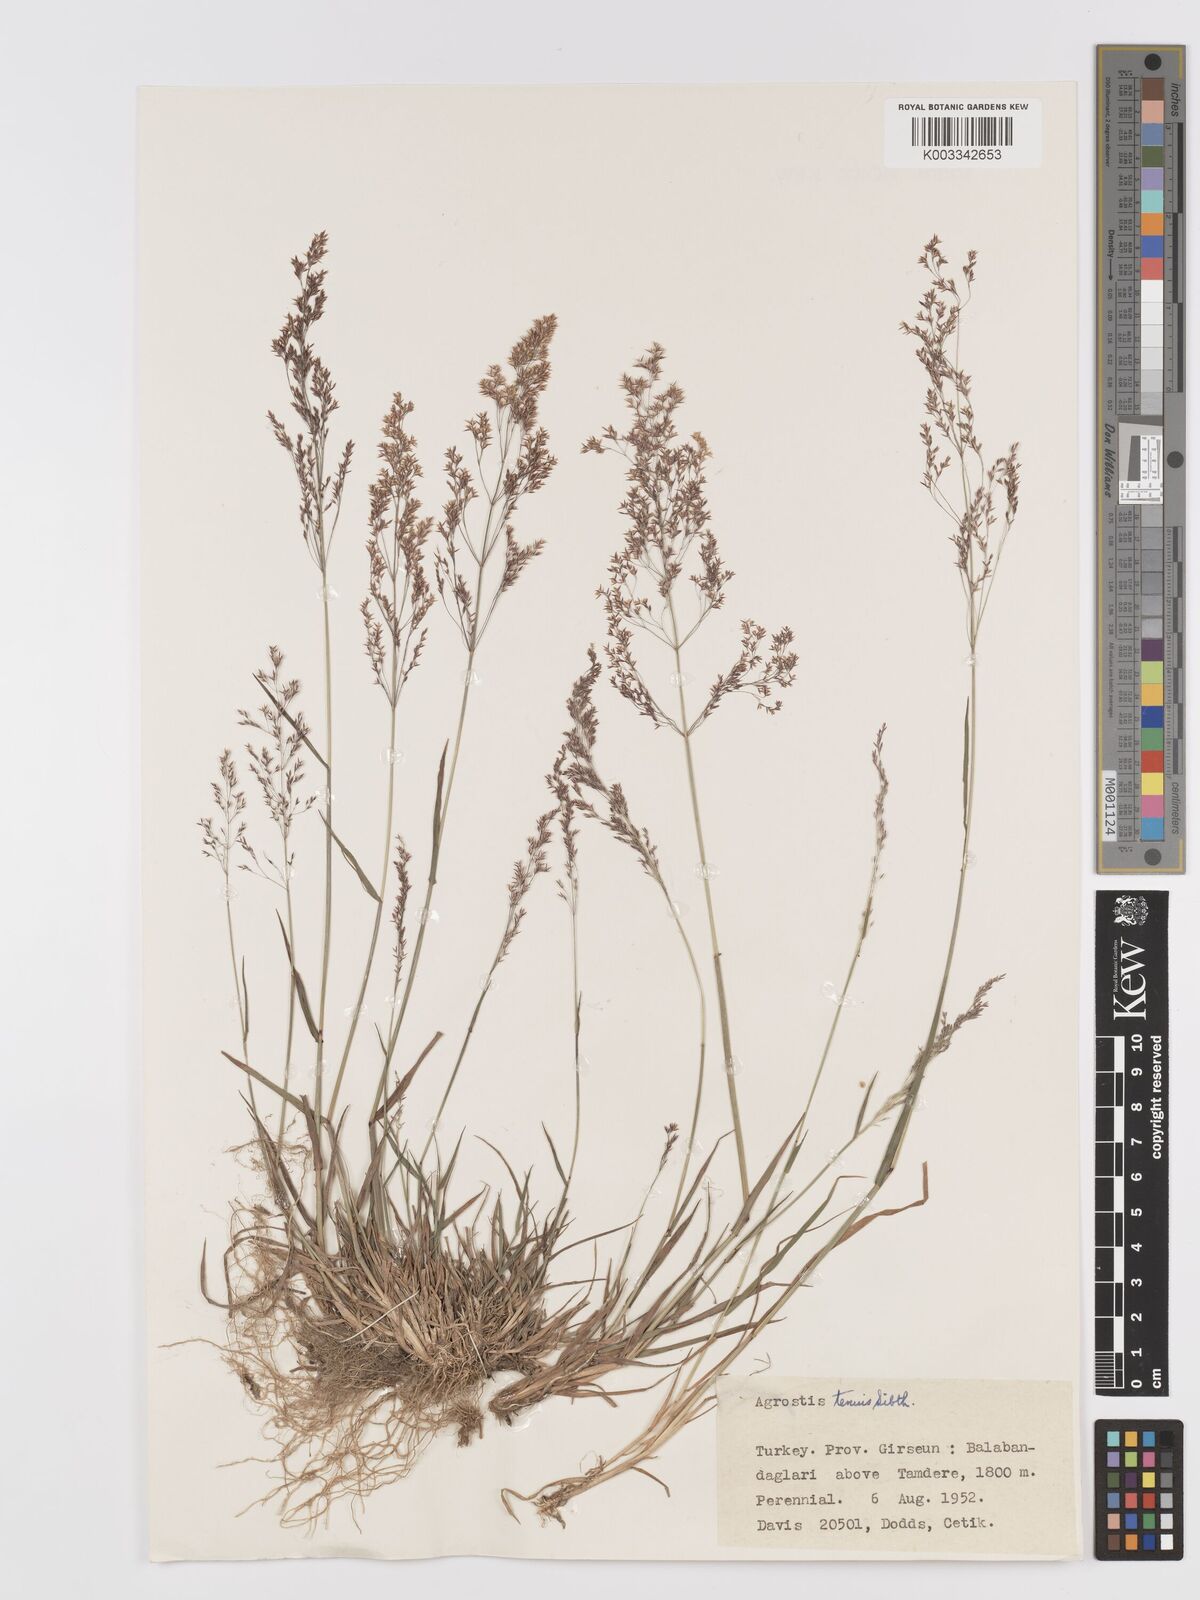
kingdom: Plantae
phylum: Tracheophyta
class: Liliopsida
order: Poales
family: Poaceae
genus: Agrostis
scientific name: Agrostis capillaris
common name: Colonial bentgrass
